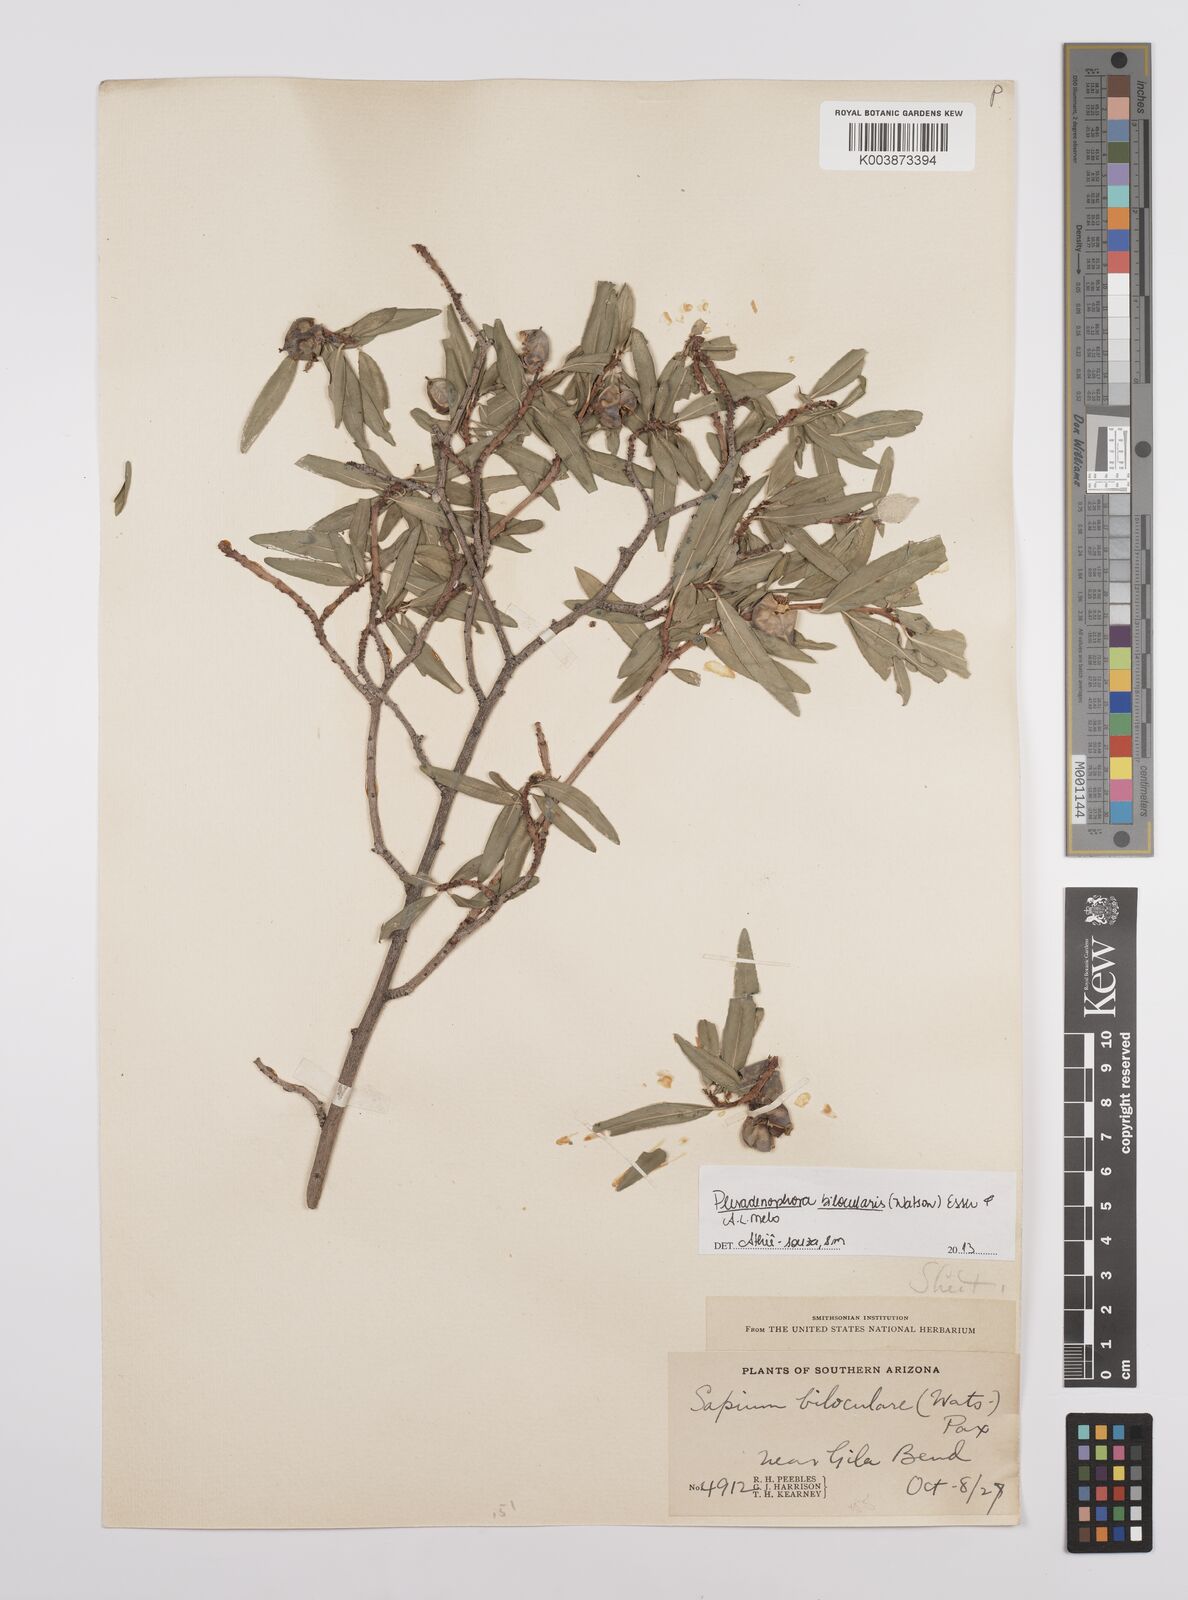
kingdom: Plantae
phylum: Tracheophyta
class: Magnoliopsida
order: Malpighiales
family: Euphorbiaceae
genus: Pleradenophora
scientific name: Pleradenophora bilocularis
